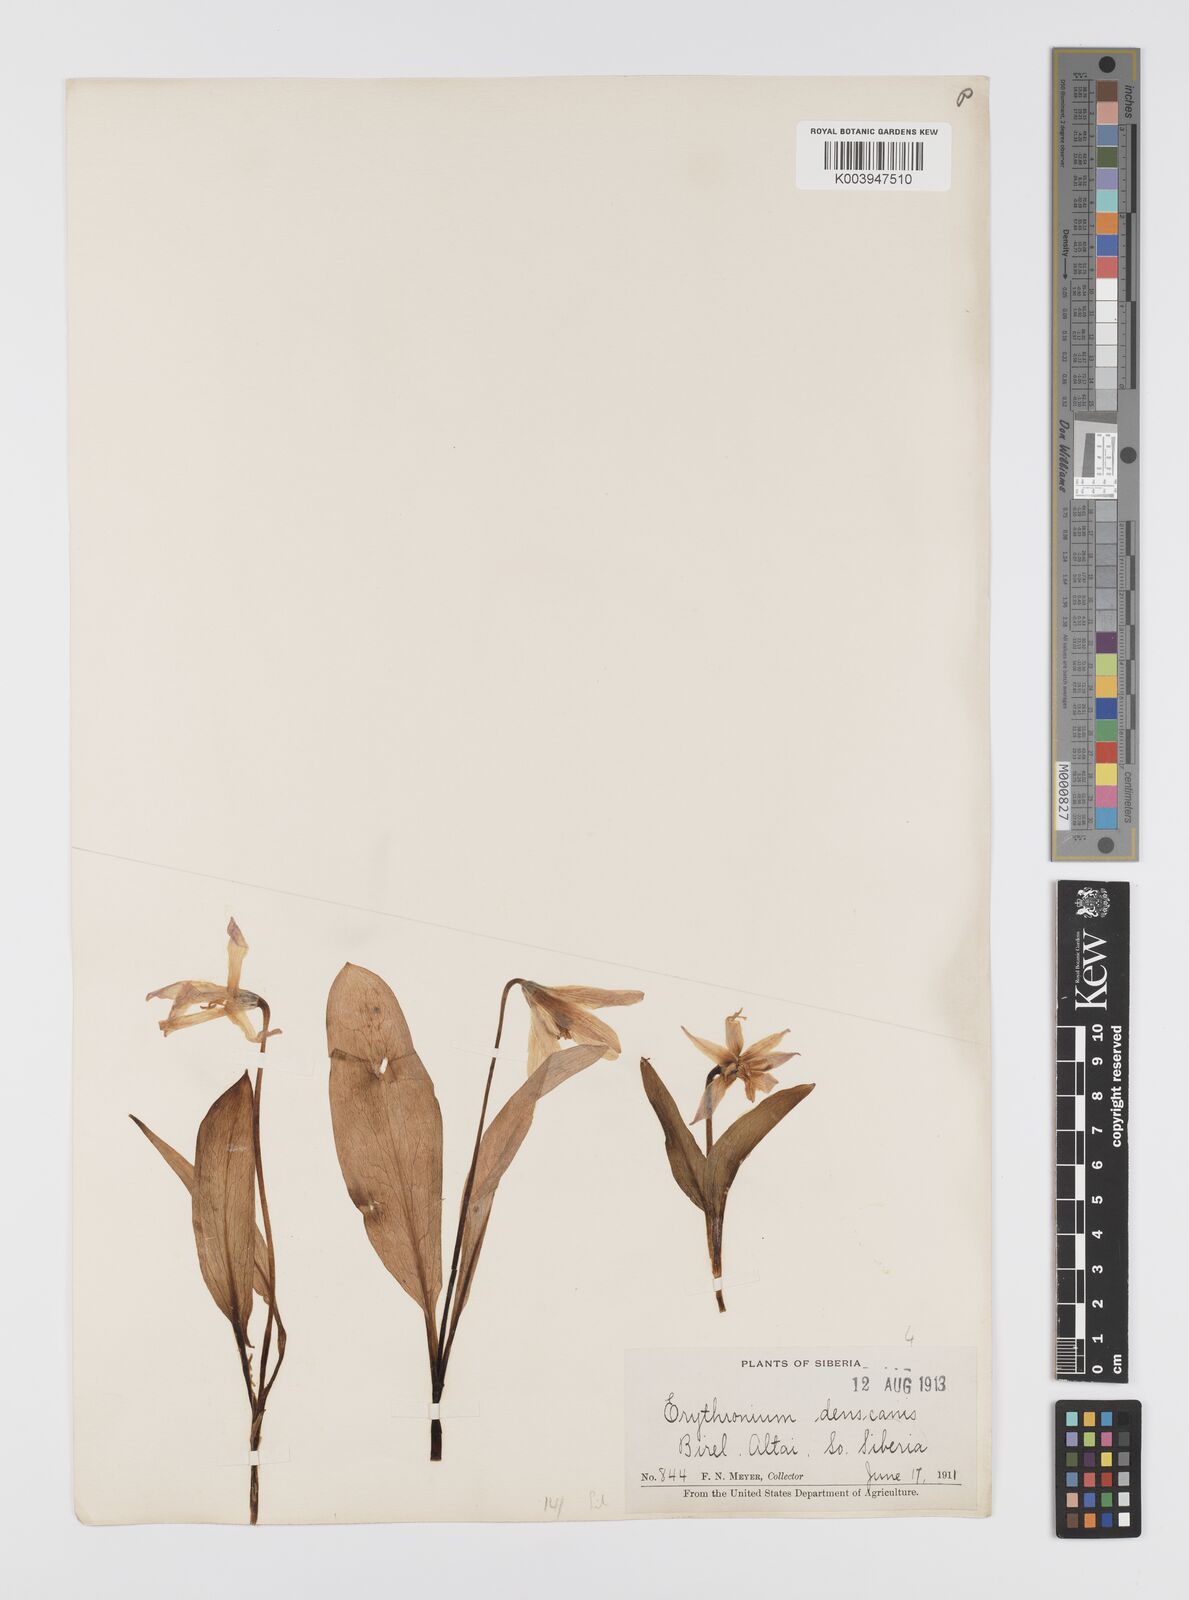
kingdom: Plantae
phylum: Tracheophyta
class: Liliopsida
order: Liliales
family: Liliaceae
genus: Erythronium
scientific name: Erythronium dens-canis
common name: Dog's-tooth-violet
